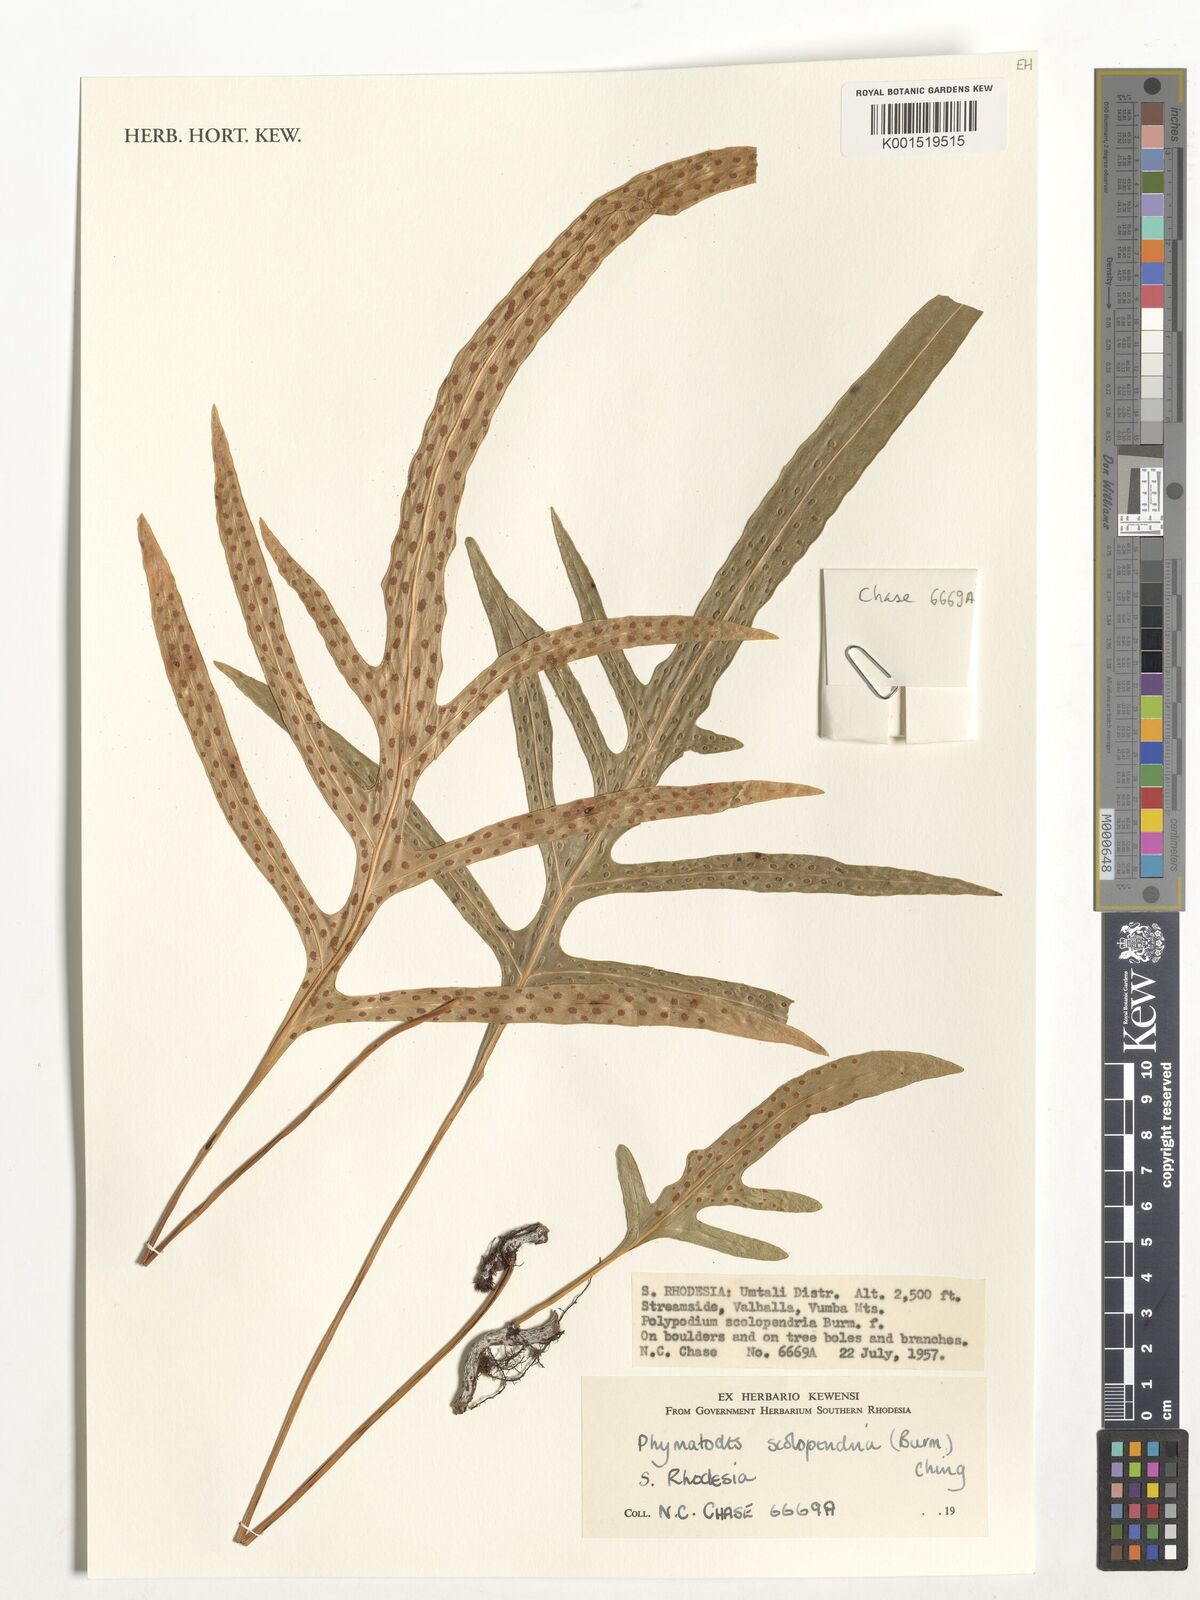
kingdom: Plantae
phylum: Tracheophyta
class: Polypodiopsida
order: Polypodiales
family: Polypodiaceae
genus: Microsorum
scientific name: Microsorum scolopendria
